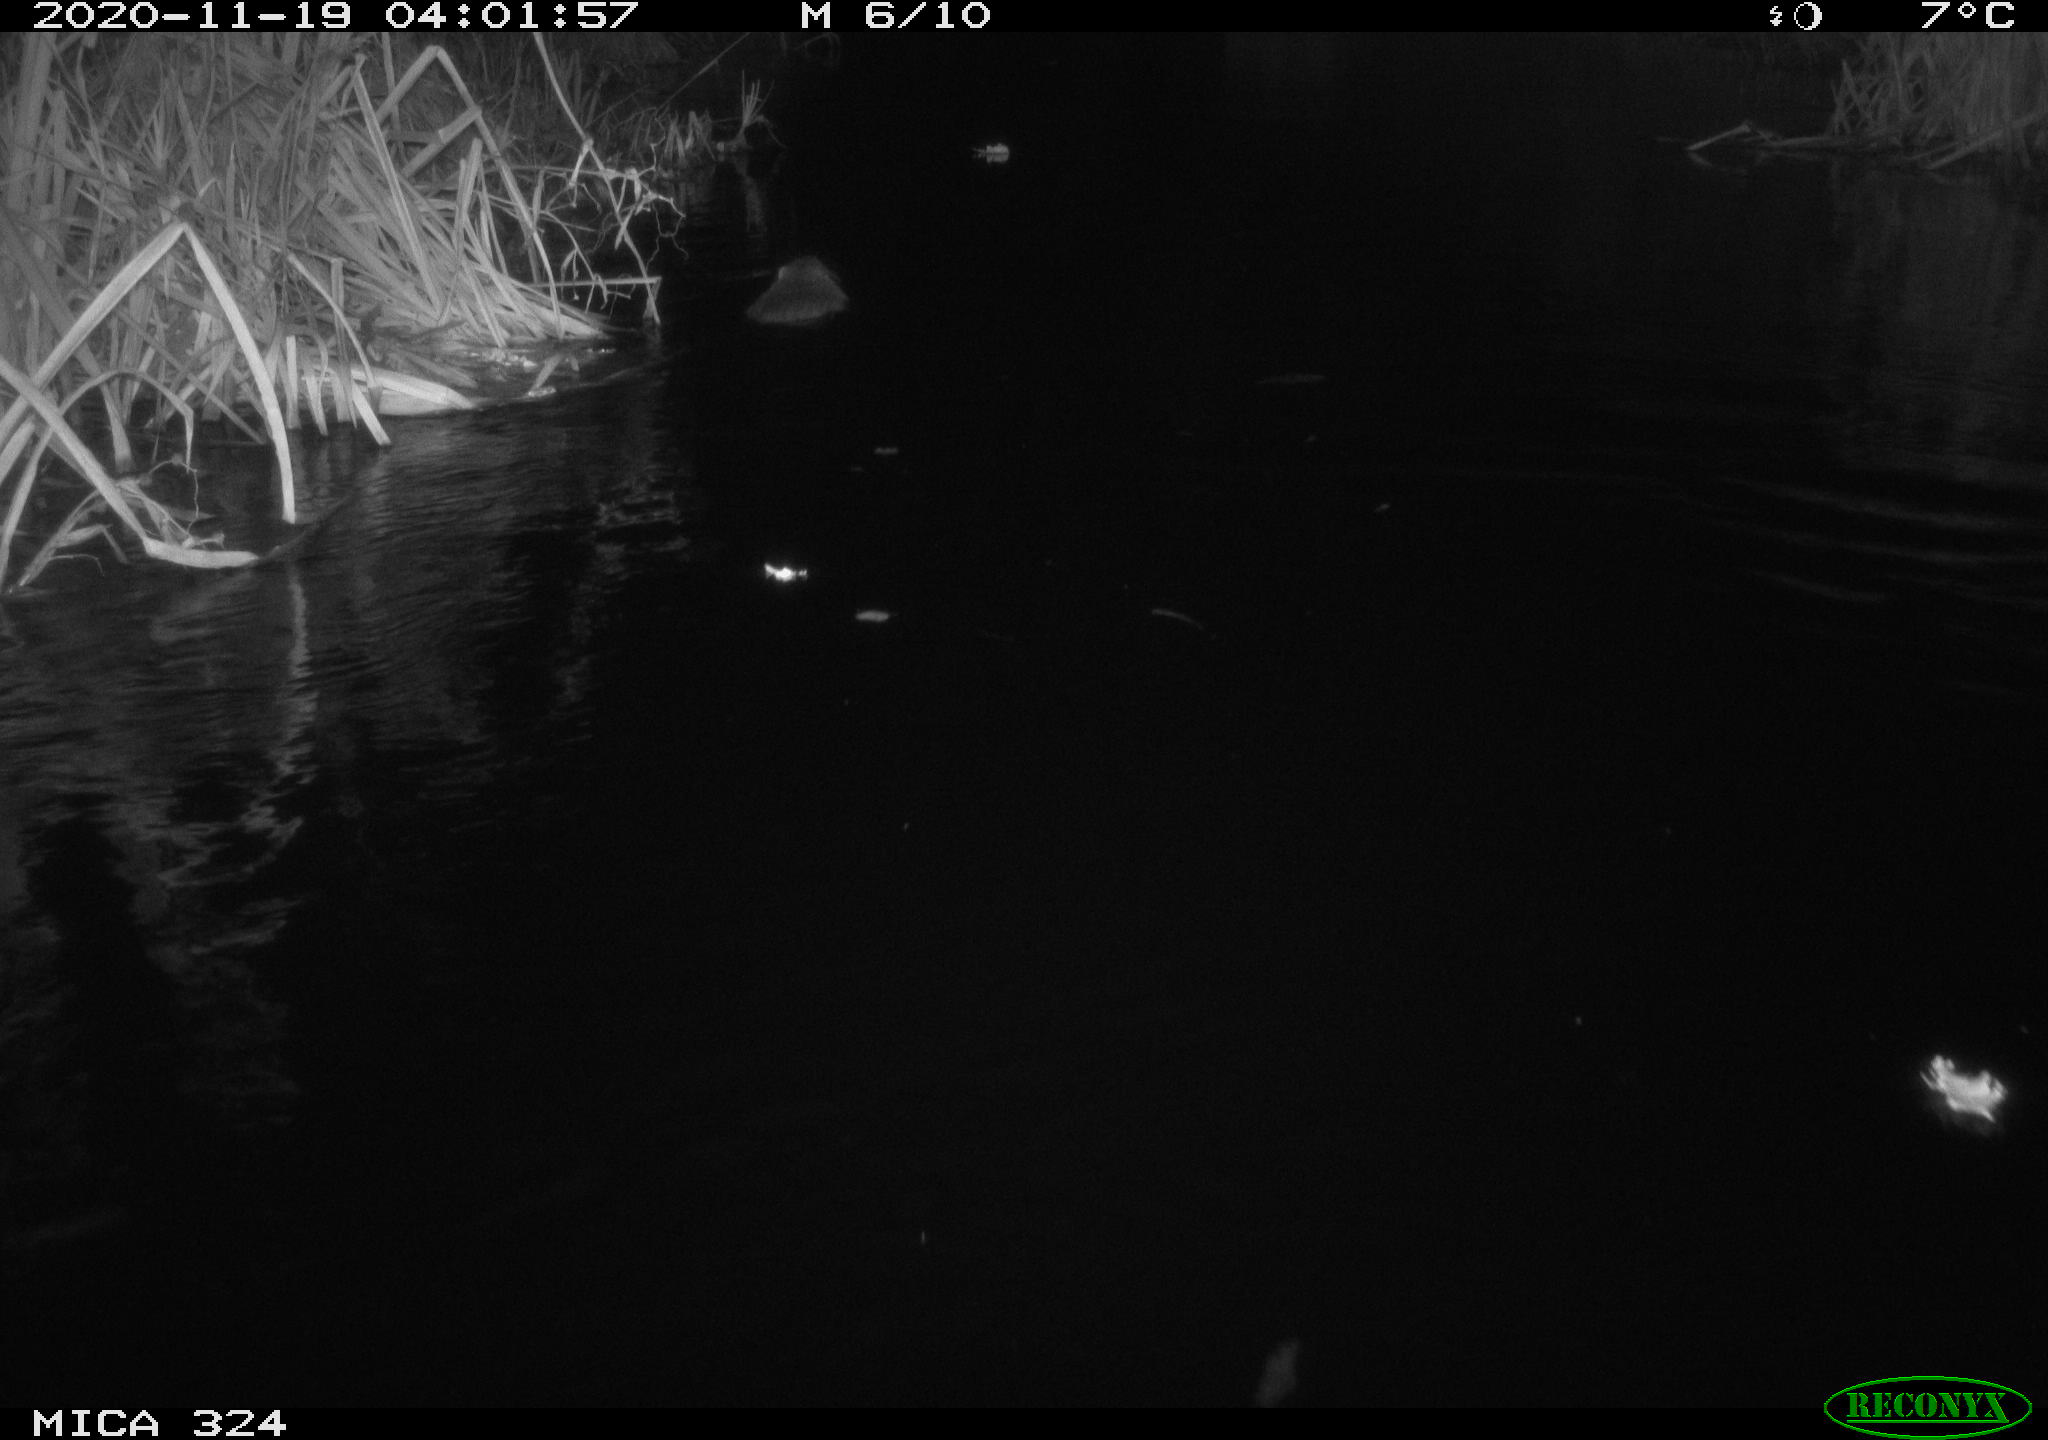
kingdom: Animalia
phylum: Chordata
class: Mammalia
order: Rodentia
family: Myocastoridae
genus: Myocastor
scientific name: Myocastor coypus
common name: Coypu
